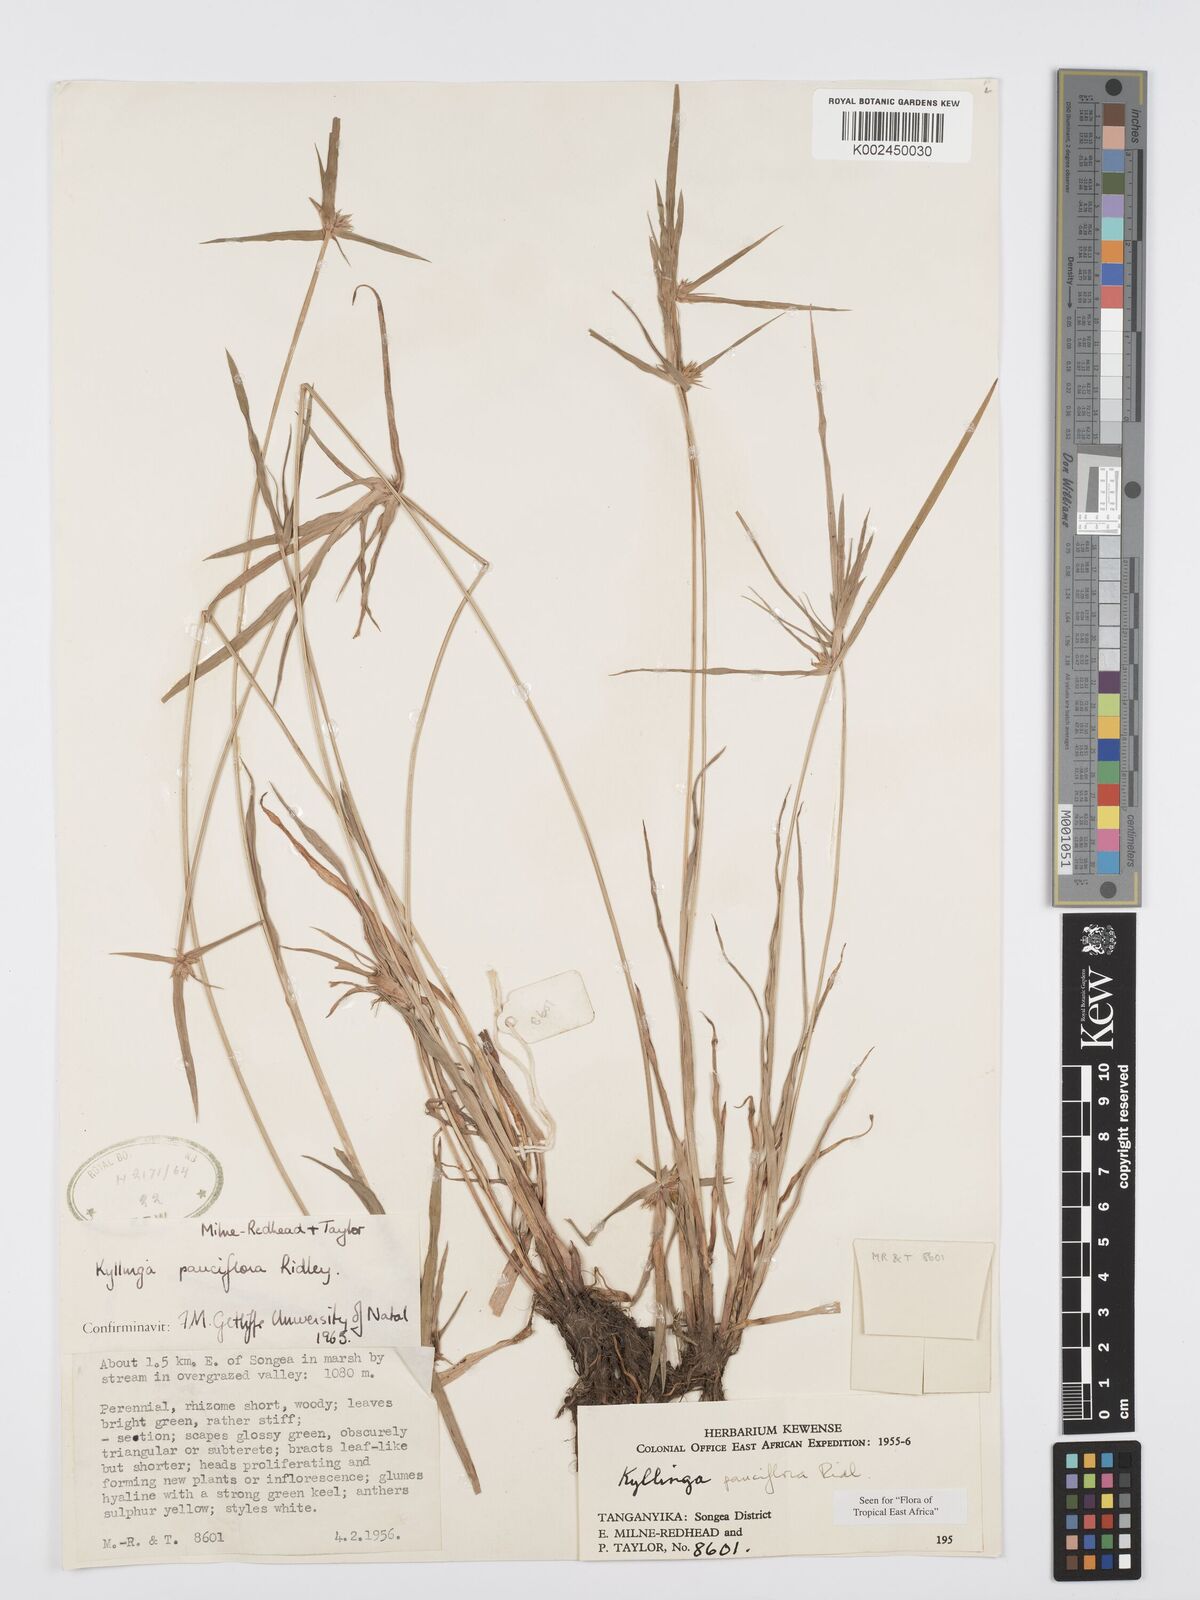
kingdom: Plantae
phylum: Tracheophyta
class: Liliopsida
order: Poales
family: Cyperaceae
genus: Cyperus
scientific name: Cyperus
